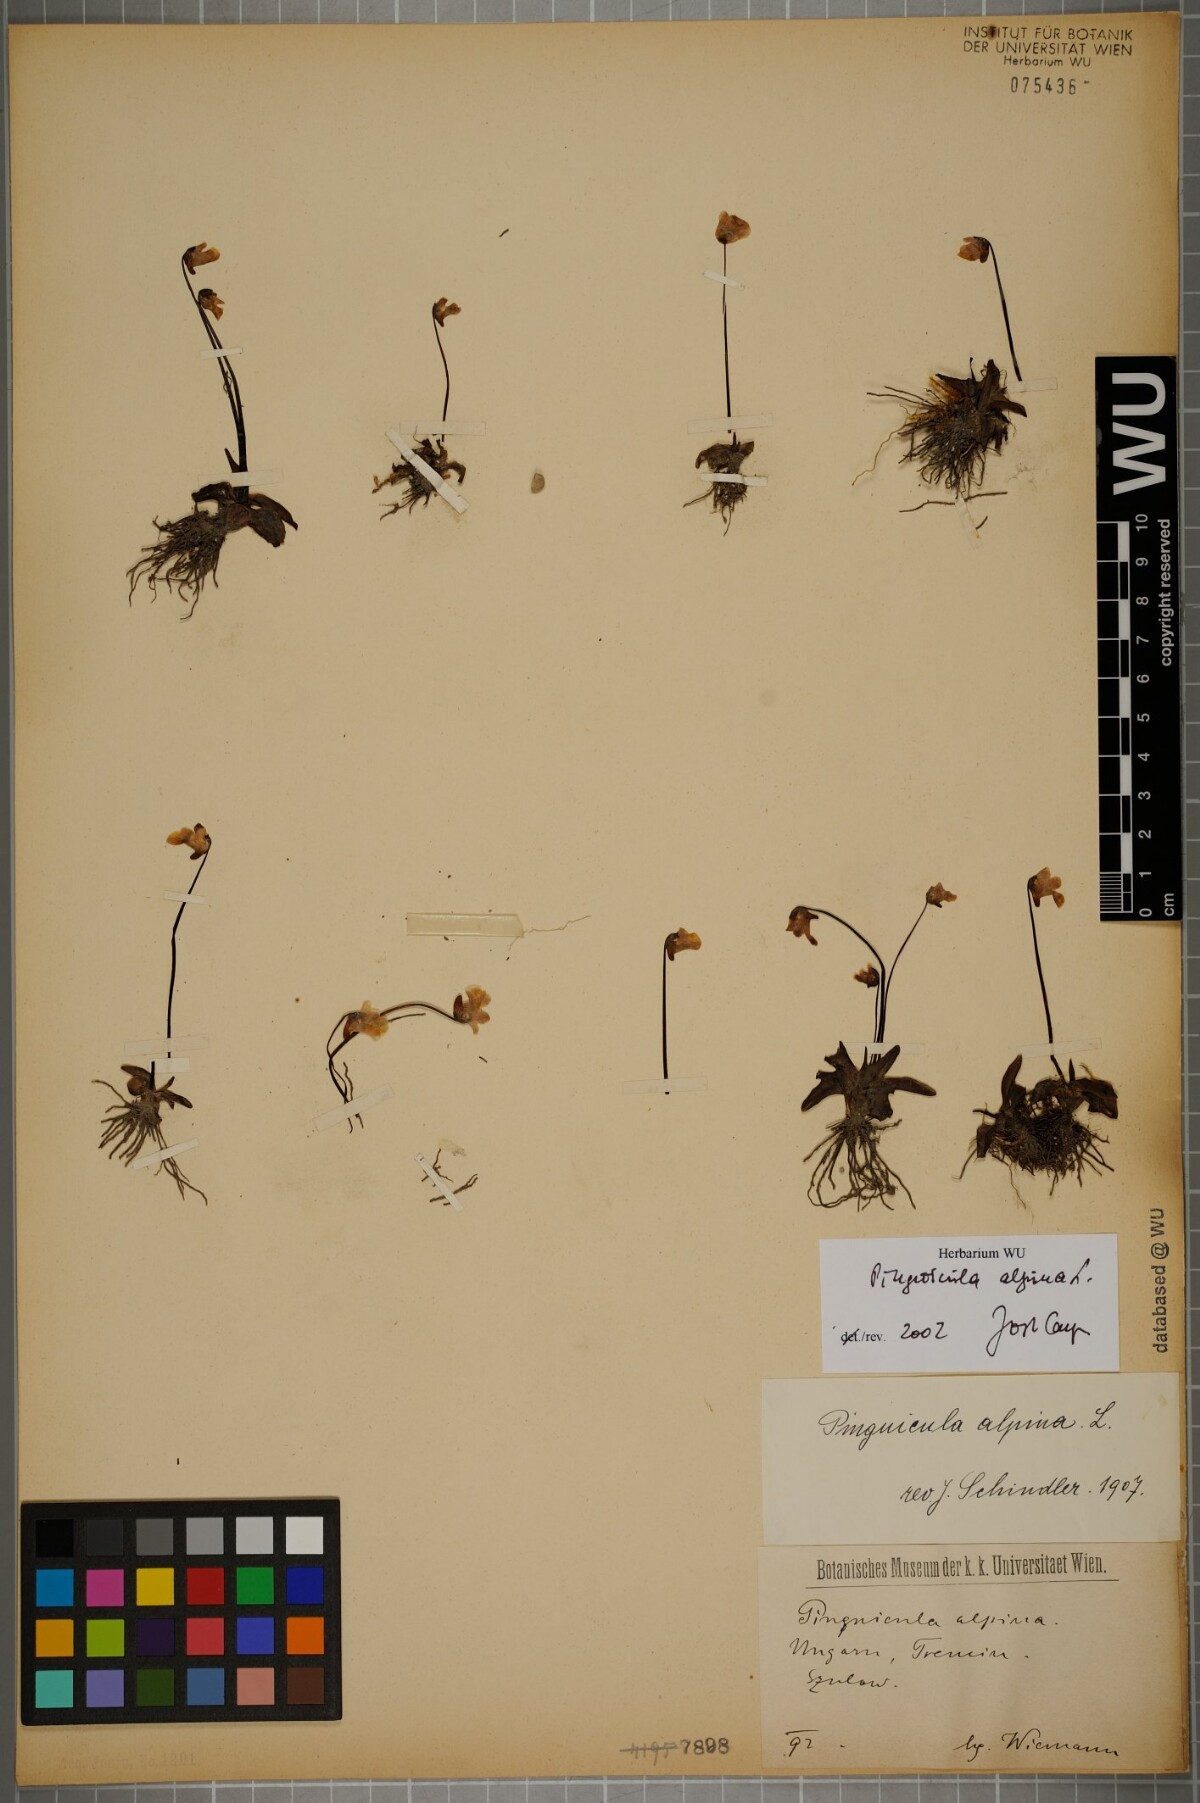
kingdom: Plantae
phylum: Tracheophyta
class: Magnoliopsida
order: Lamiales
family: Lentibulariaceae
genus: Pinguicula
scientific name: Pinguicula alpina
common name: Alpine butterwort
